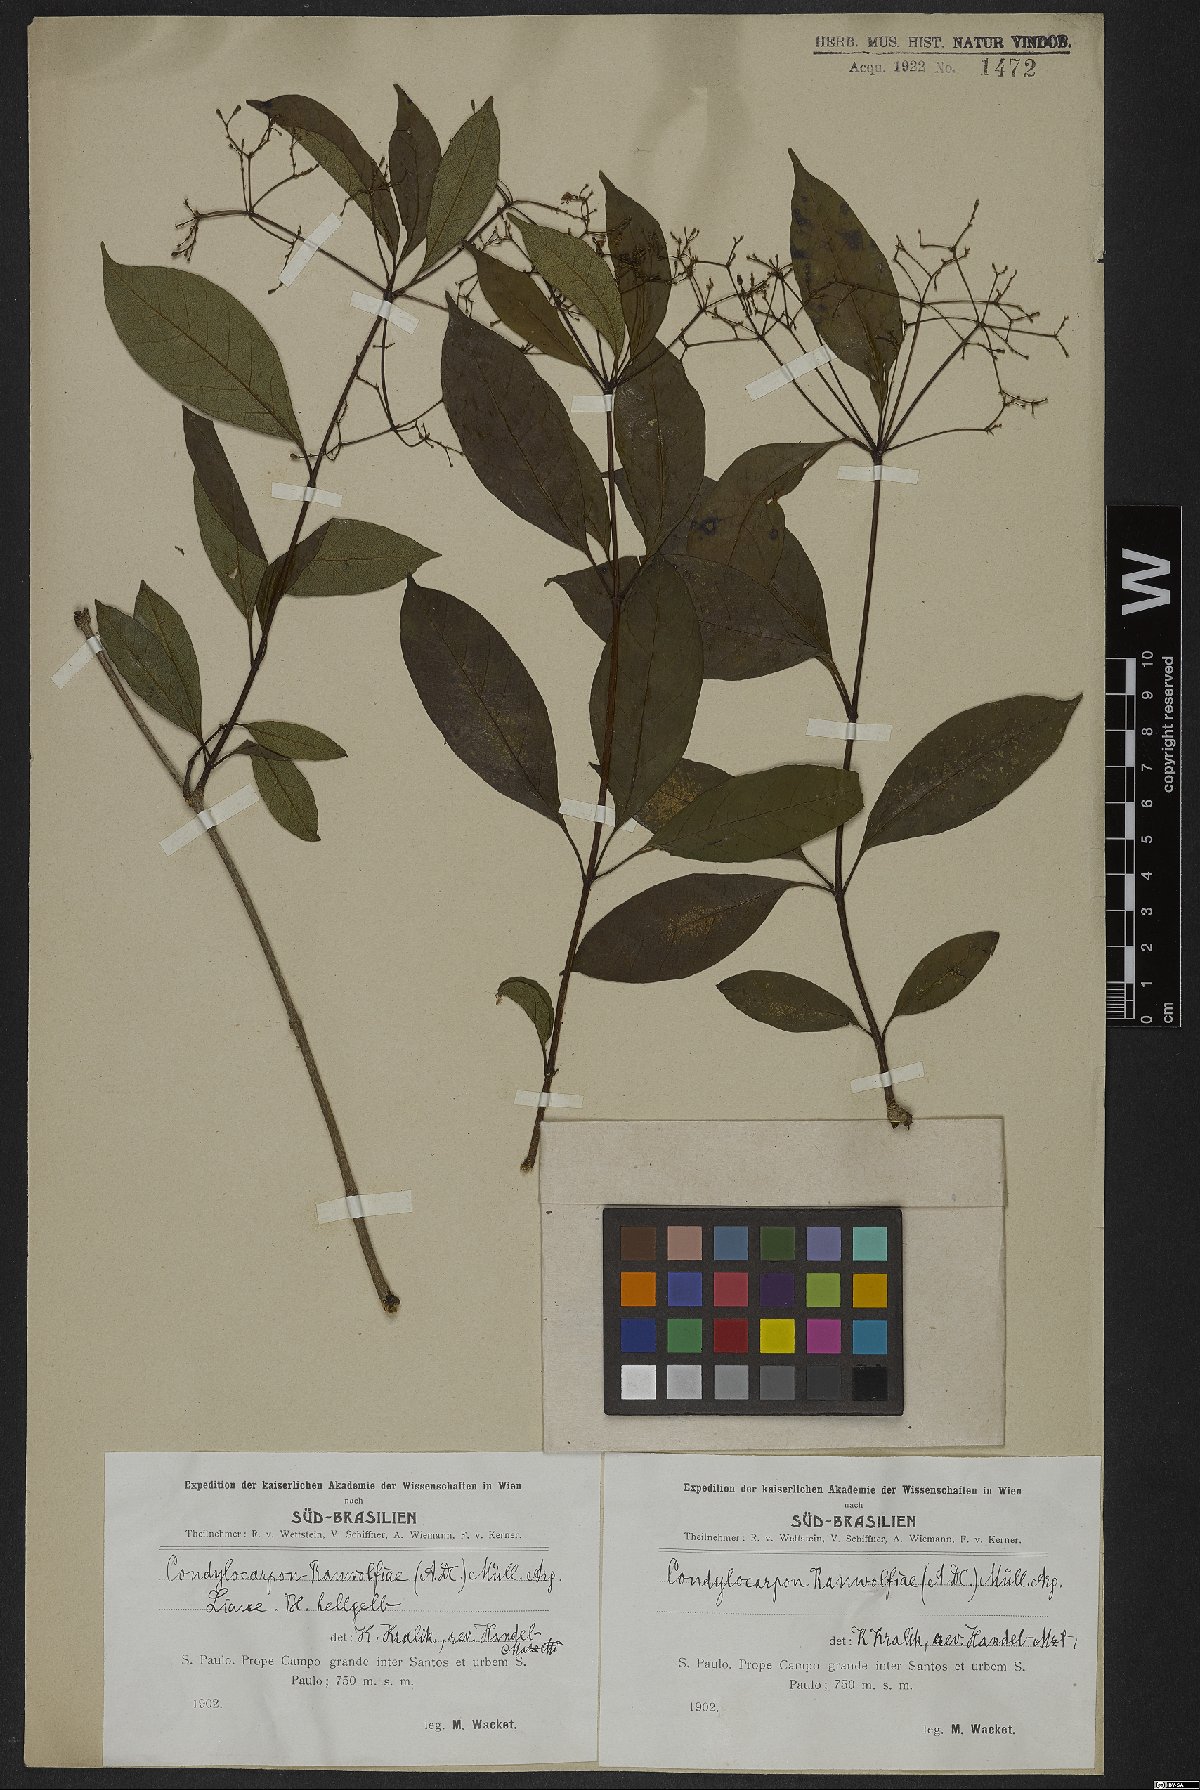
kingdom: Plantae
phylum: Tracheophyta
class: Magnoliopsida
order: Gentianales
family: Apocynaceae
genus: Condylocarpon
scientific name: Condylocarpon isthmicum
